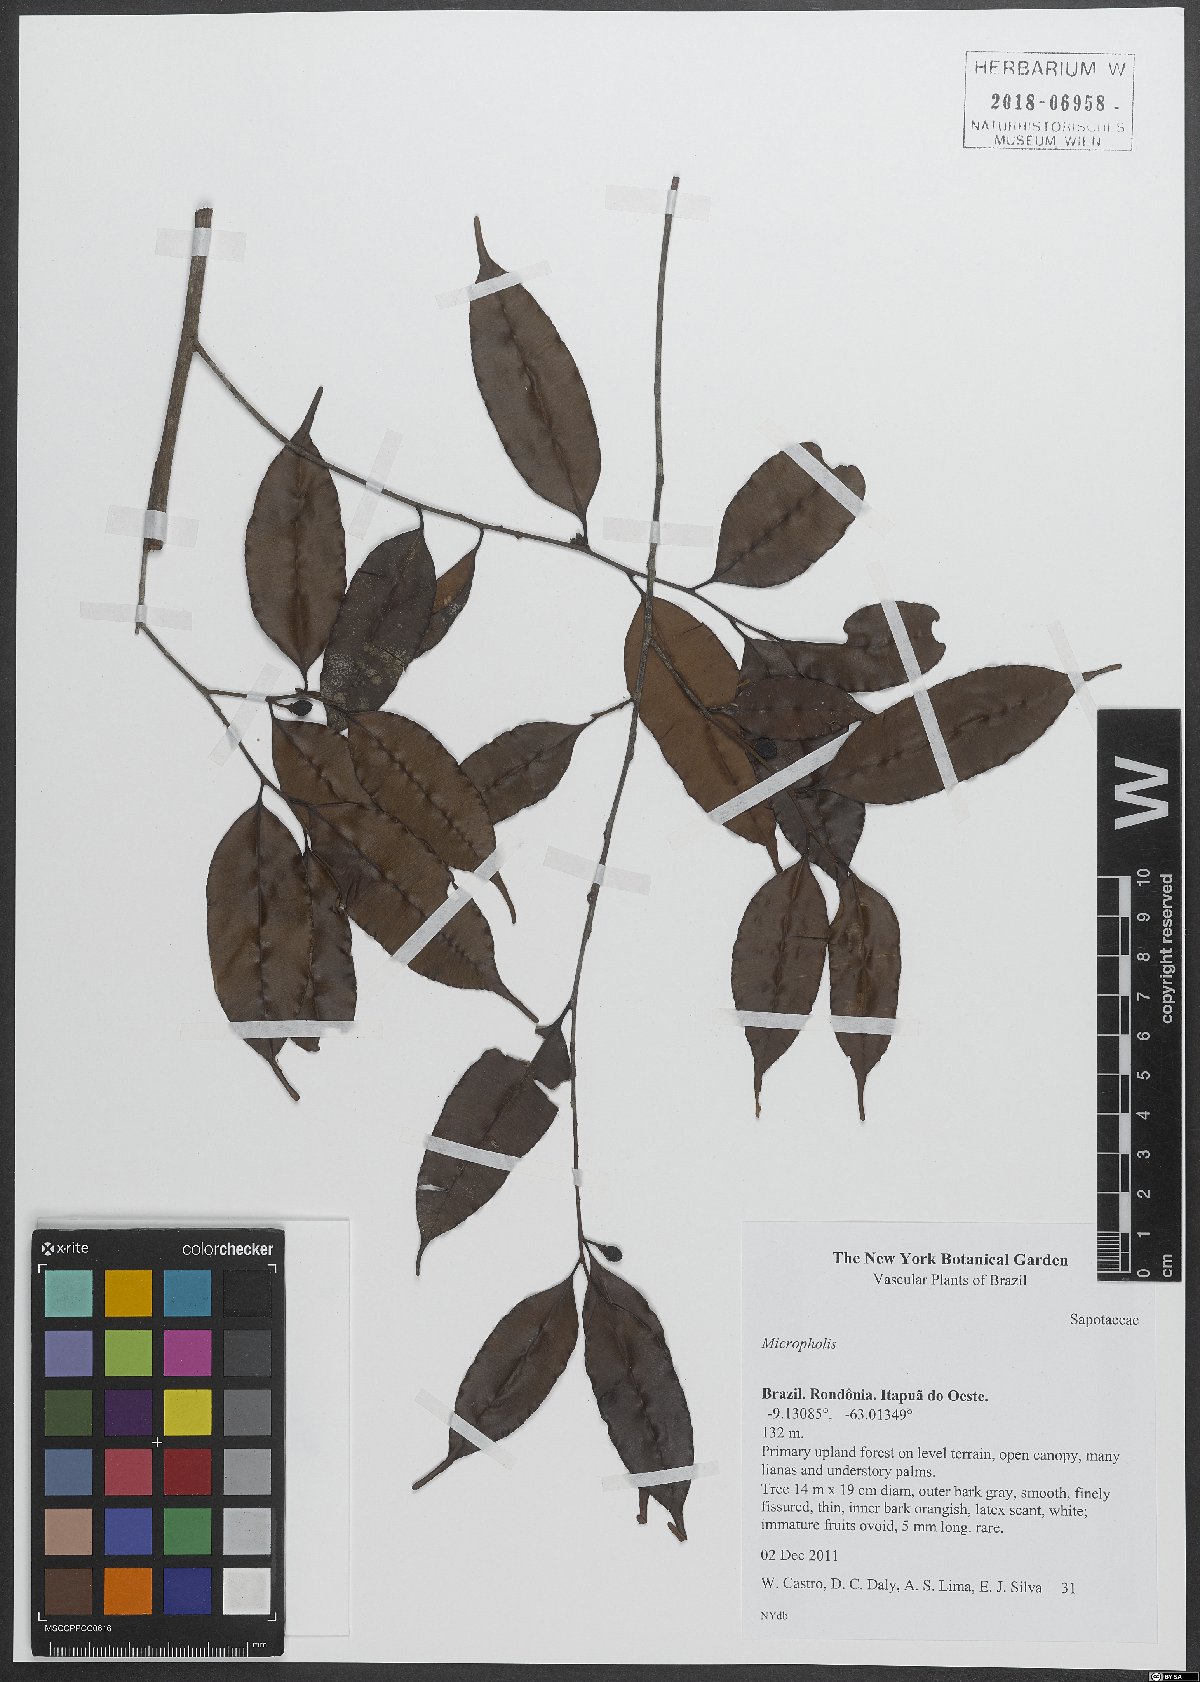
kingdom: Plantae
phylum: Tracheophyta
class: Magnoliopsida
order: Ericales
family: Sapotaceae
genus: Micropholis
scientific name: Micropholis
